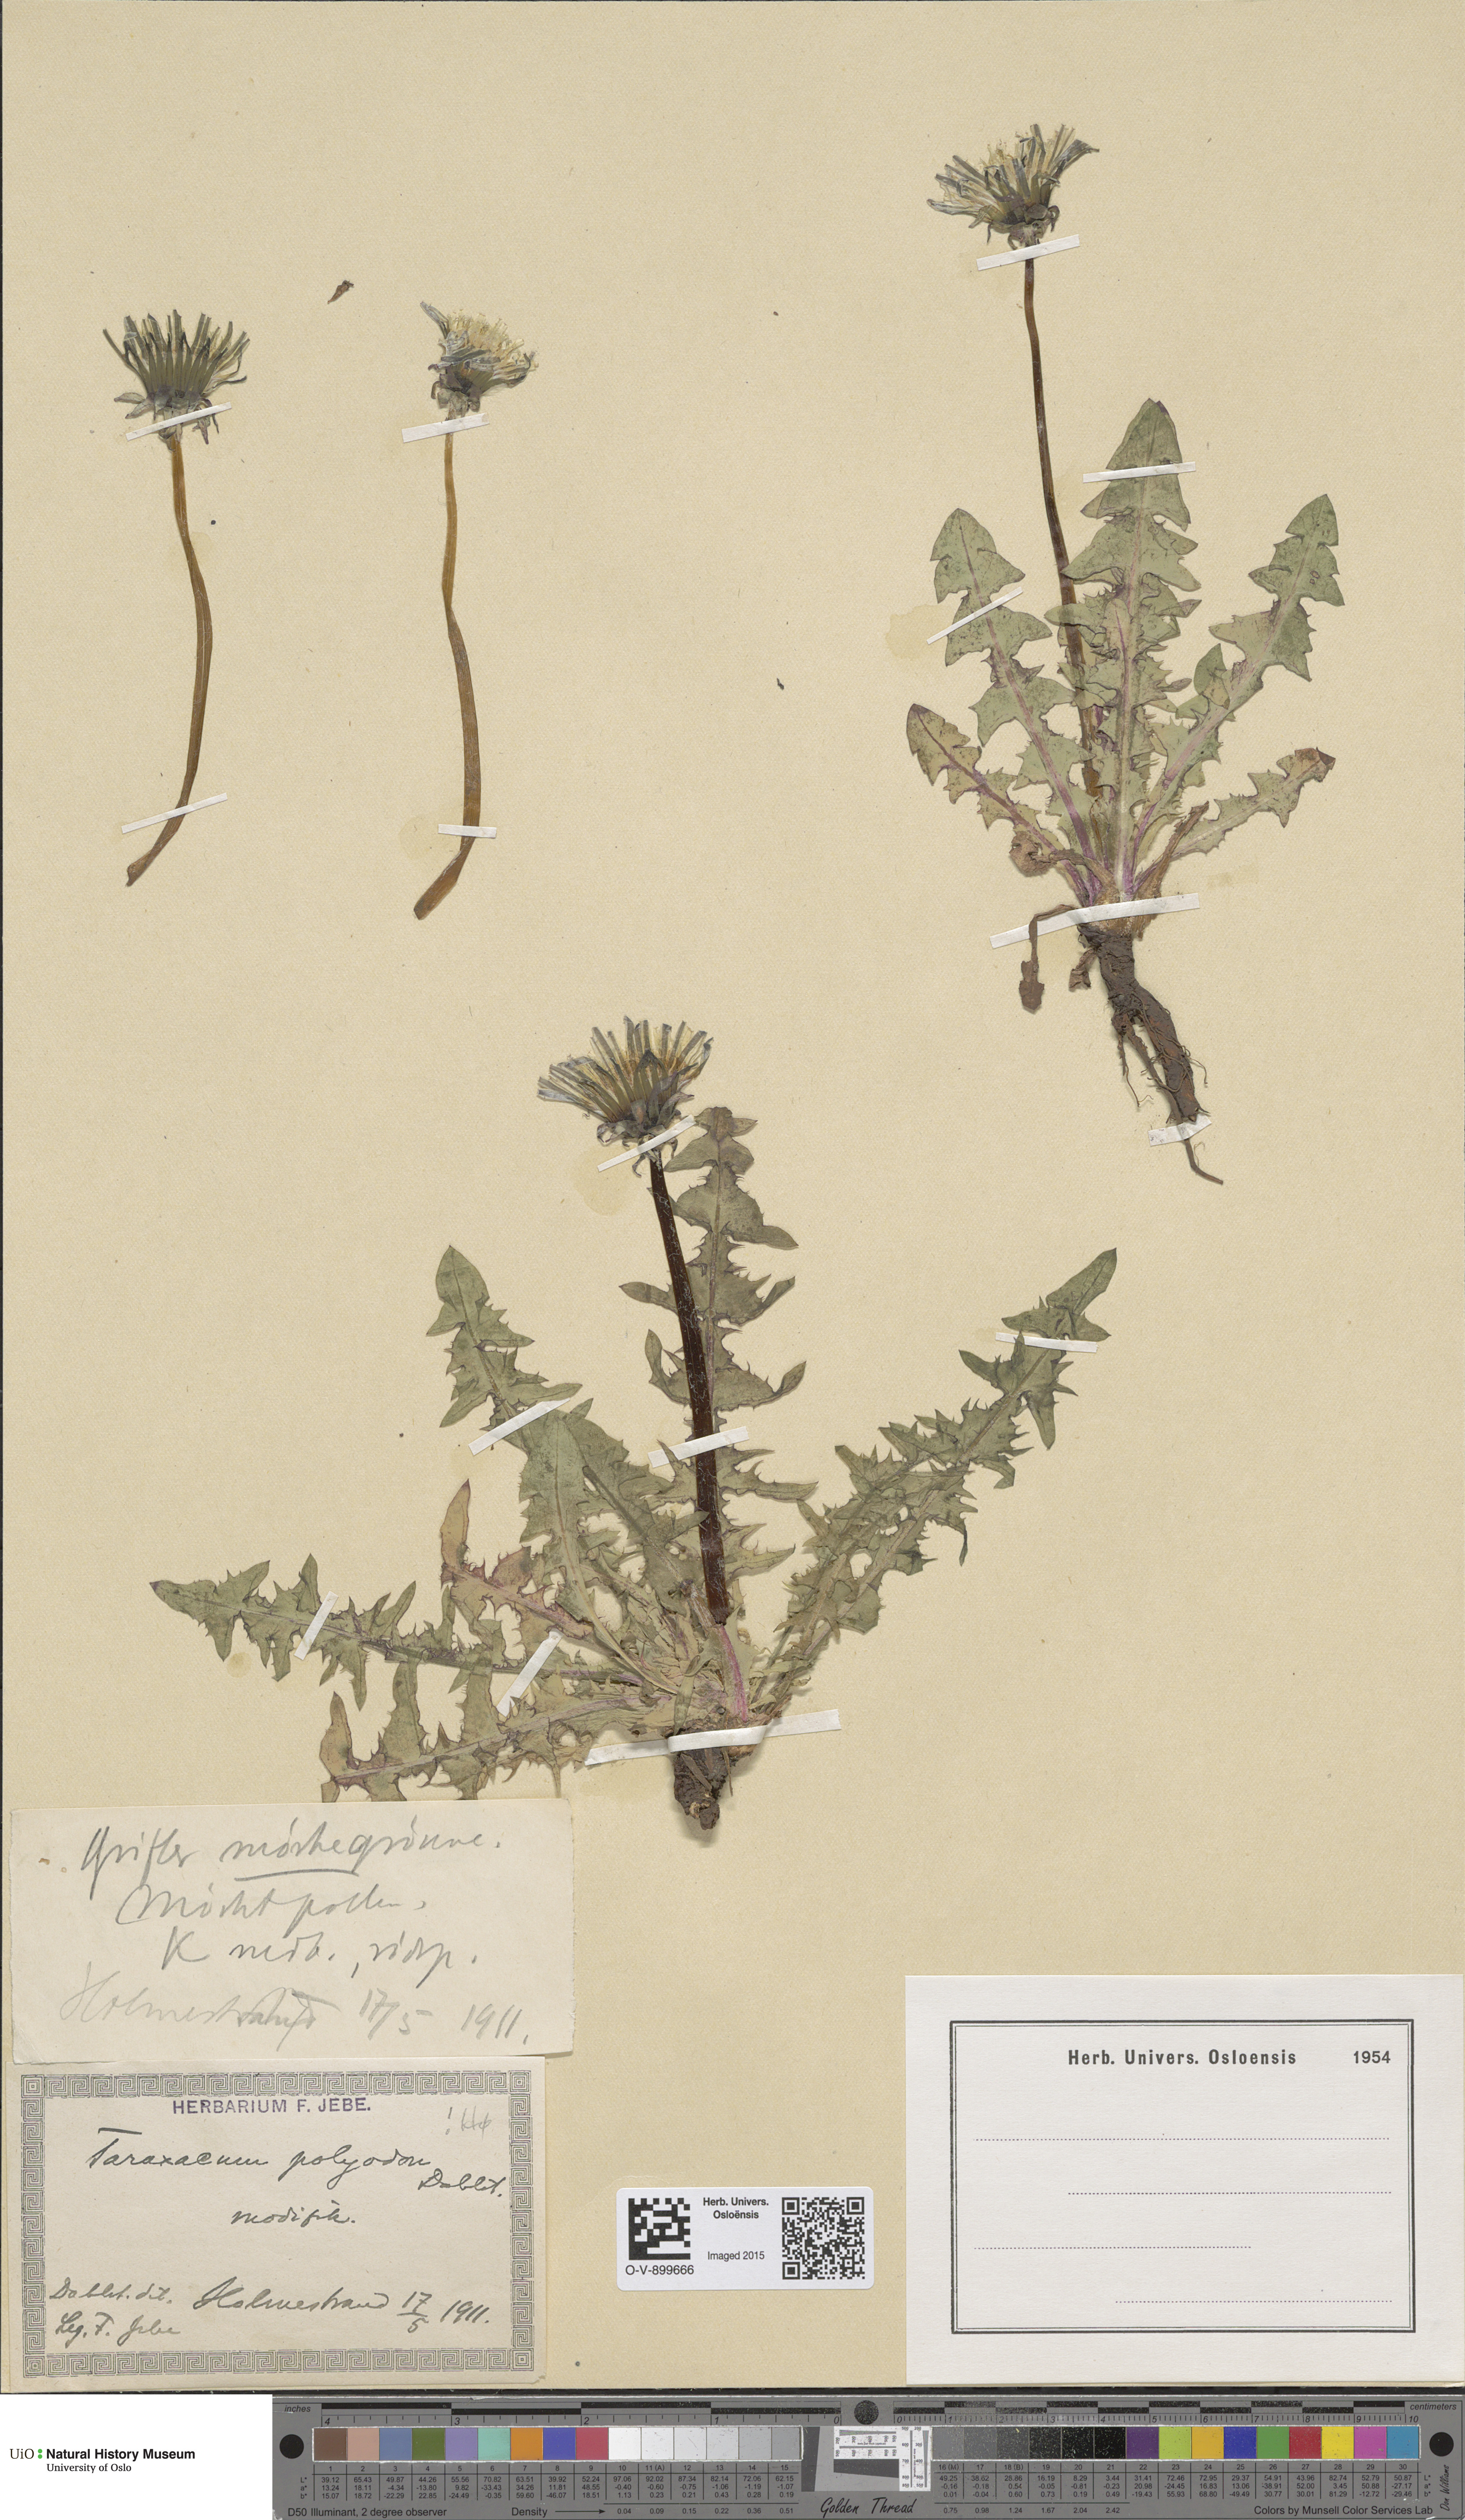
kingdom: Plantae
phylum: Tracheophyta
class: Magnoliopsida
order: Asterales
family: Asteraceae
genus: Taraxacum
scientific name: Taraxacum polyodon
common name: Common dandelion
